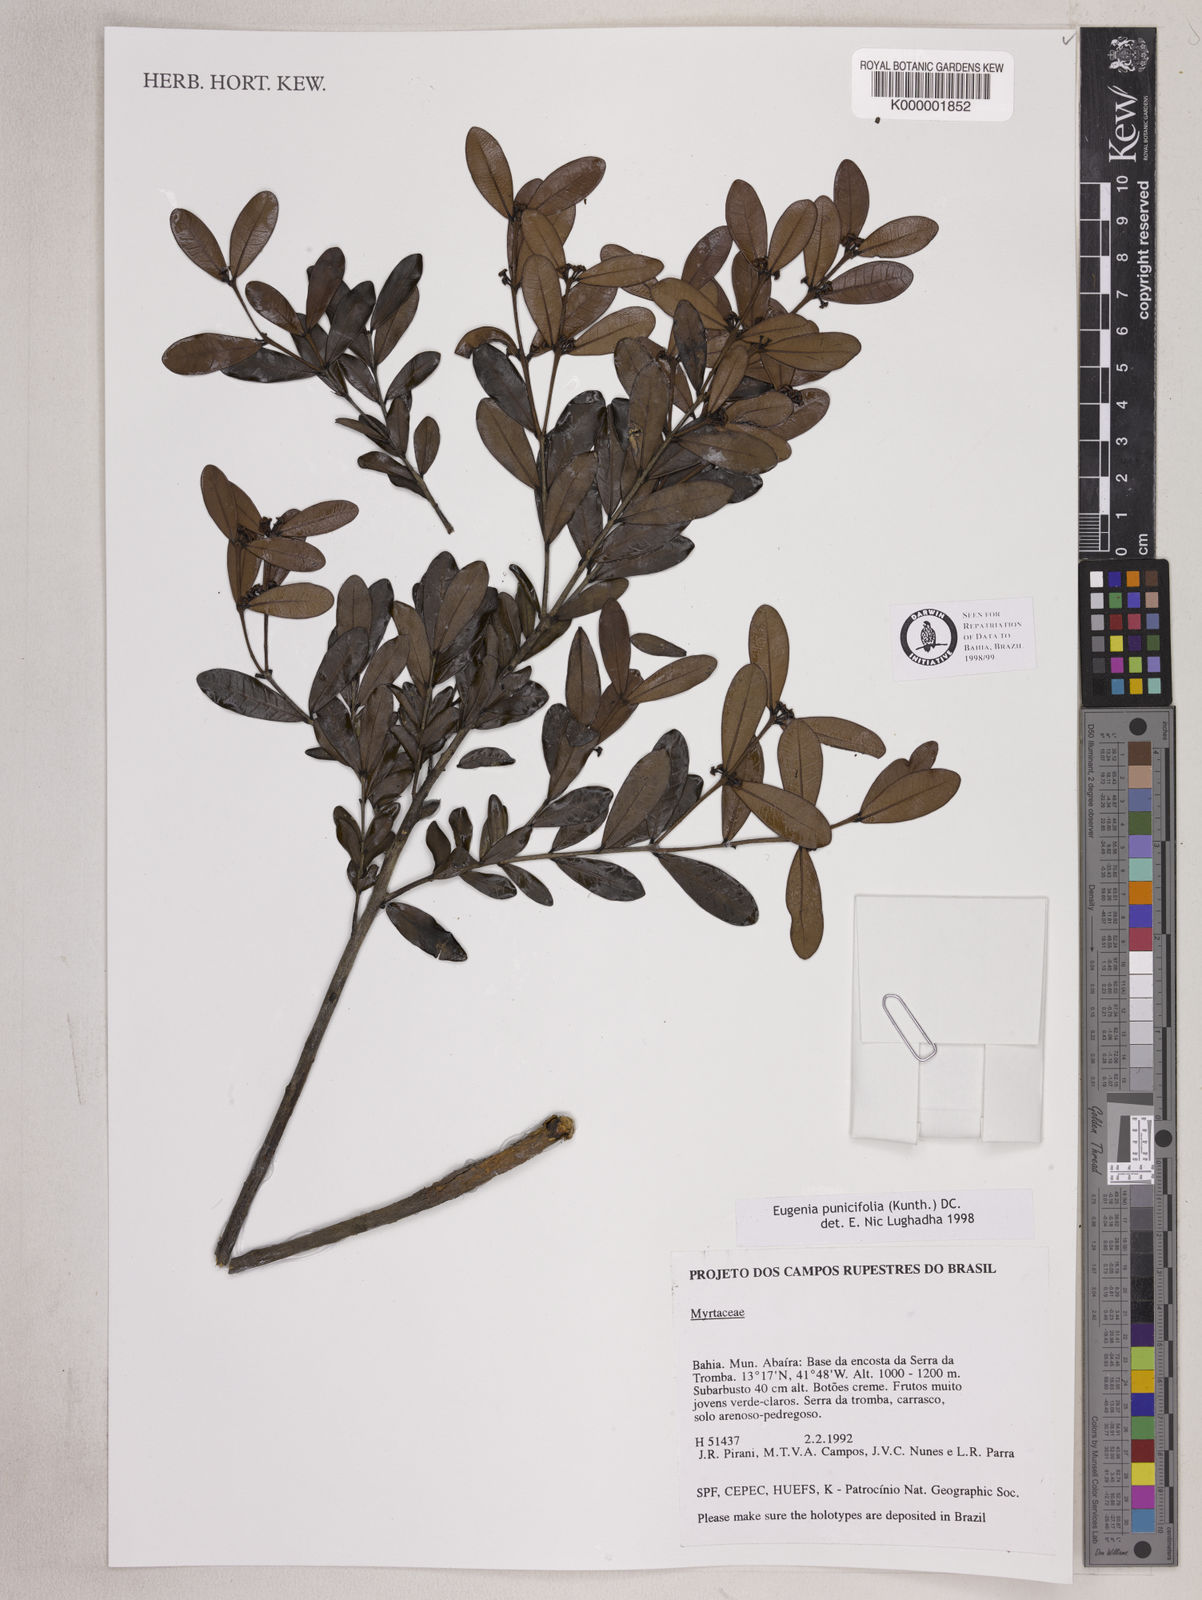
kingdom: Plantae
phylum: Tracheophyta
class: Magnoliopsida
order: Myrtales
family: Myrtaceae
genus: Eugenia
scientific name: Eugenia punicifolia
